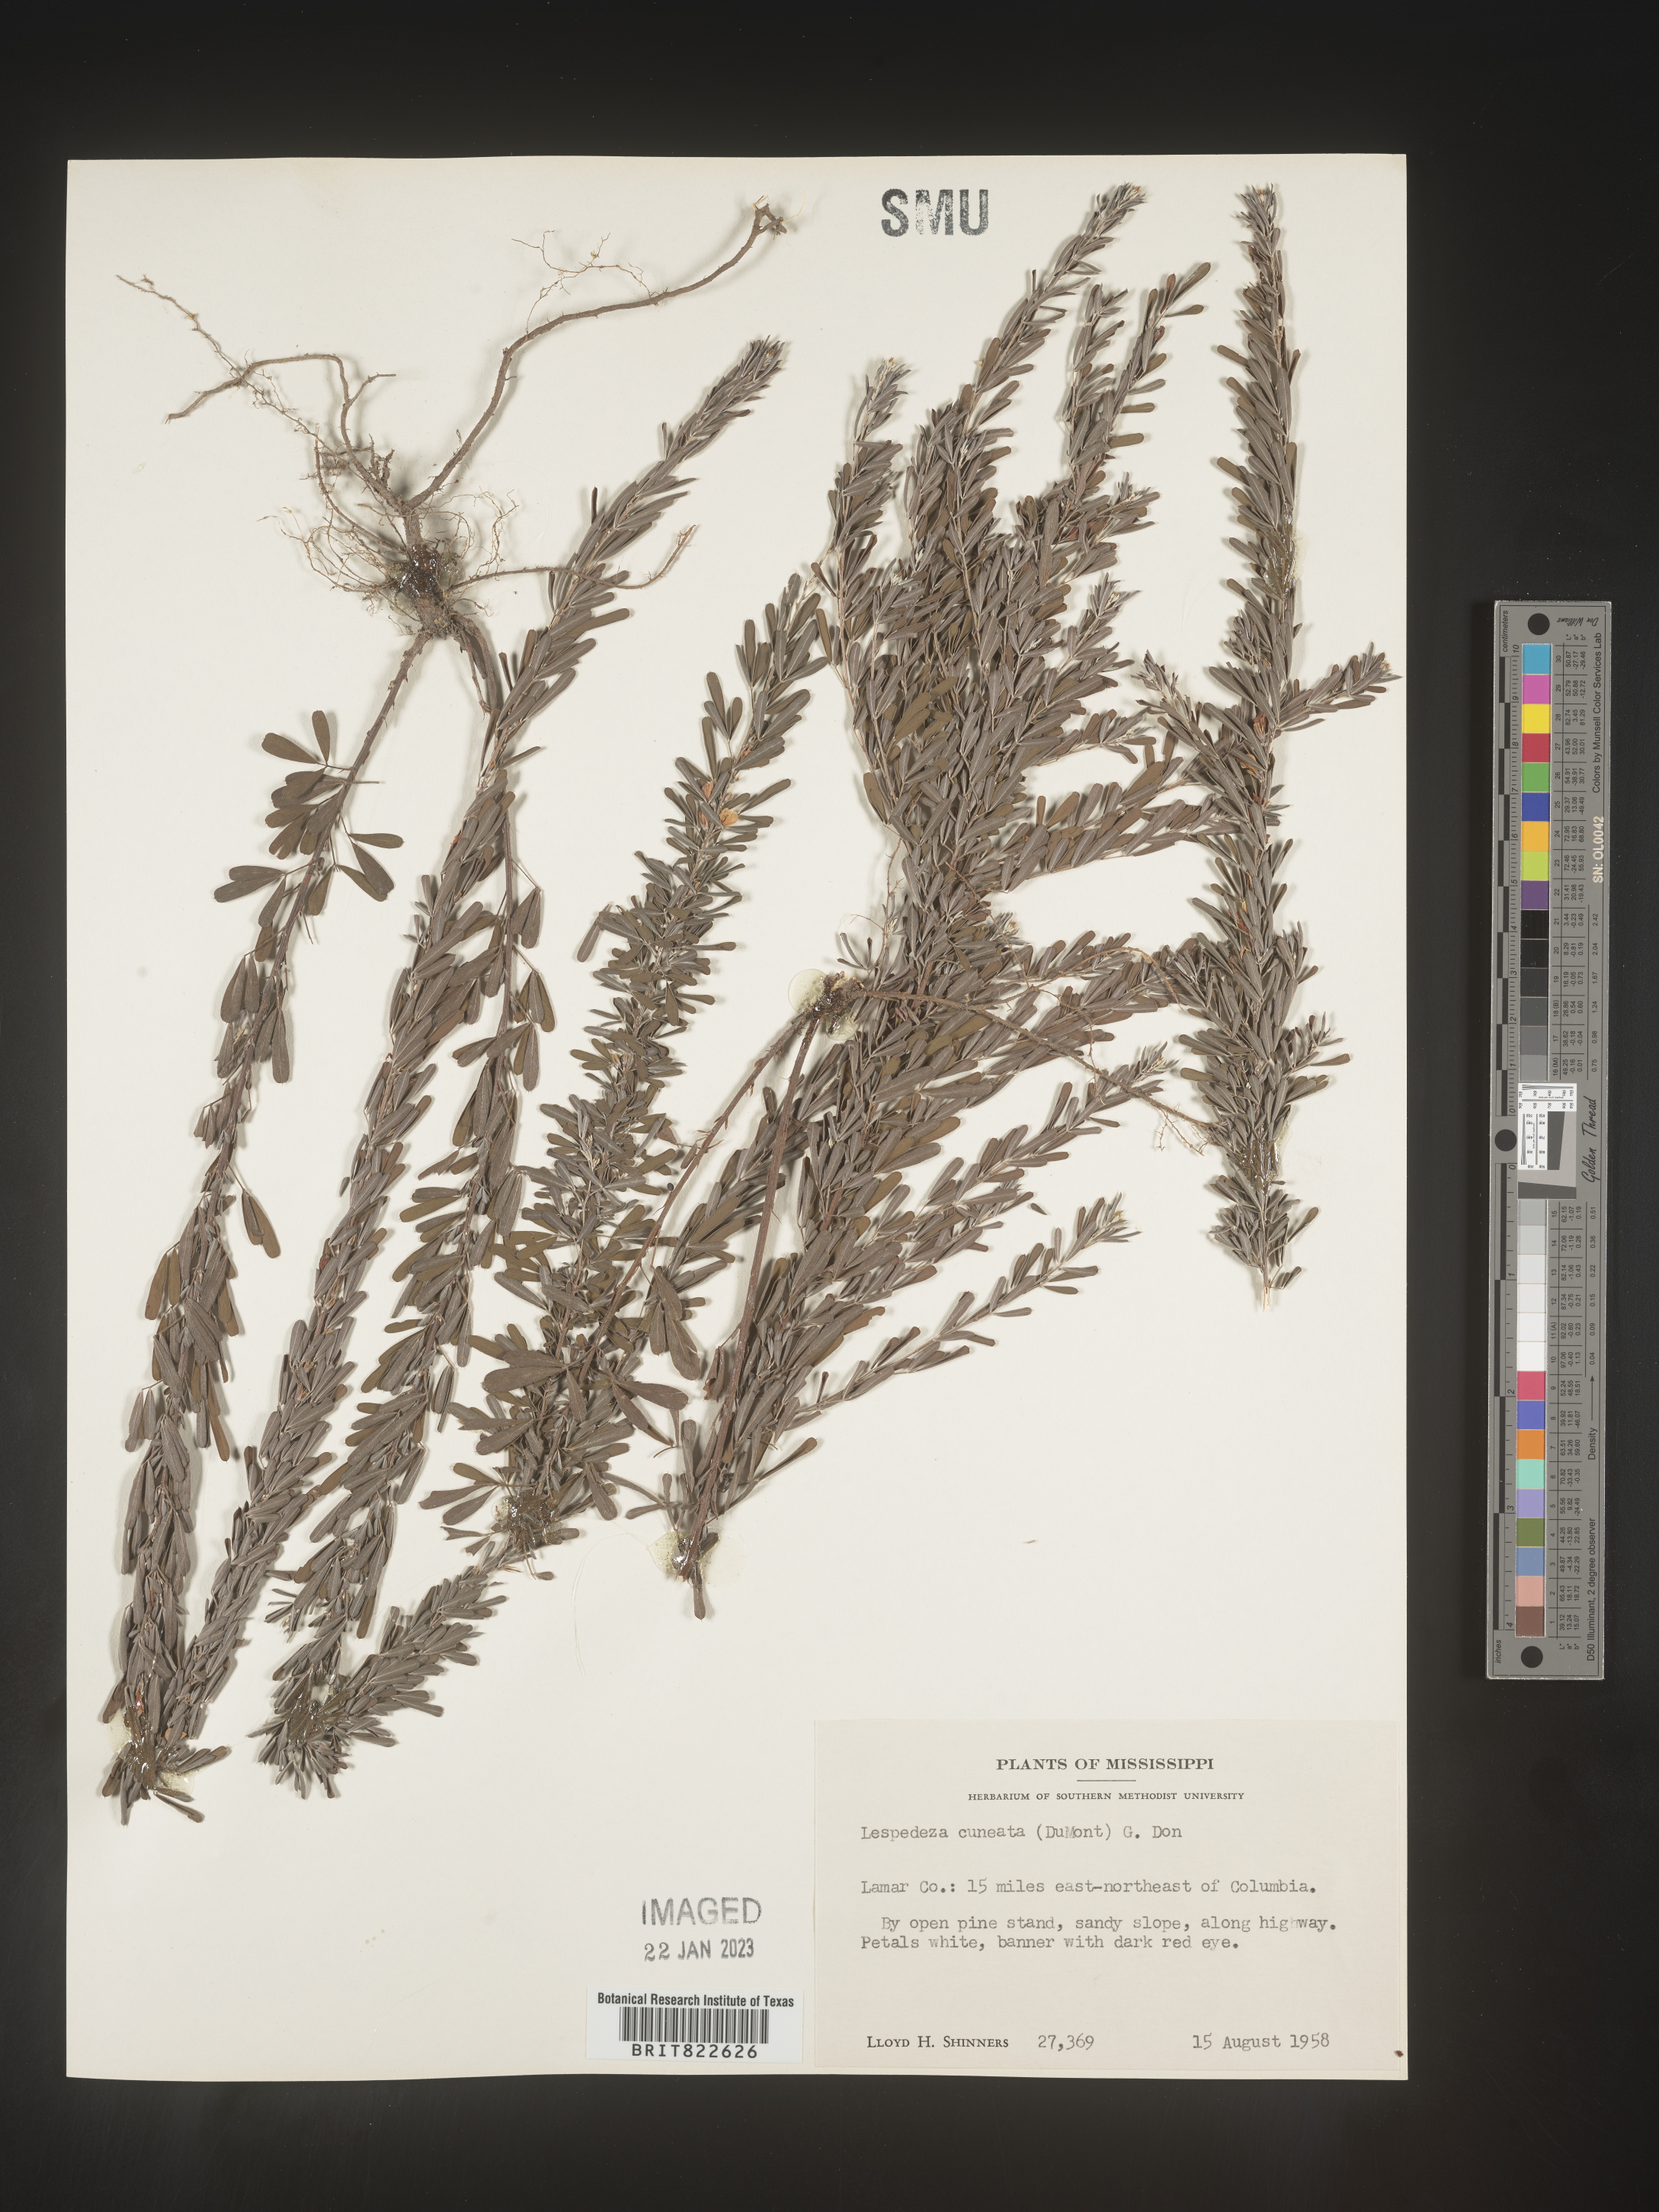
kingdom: Plantae
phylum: Tracheophyta
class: Magnoliopsida
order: Fabales
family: Fabaceae
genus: Lespedeza
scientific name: Lespedeza cuneata
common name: Chinese bush-clover
